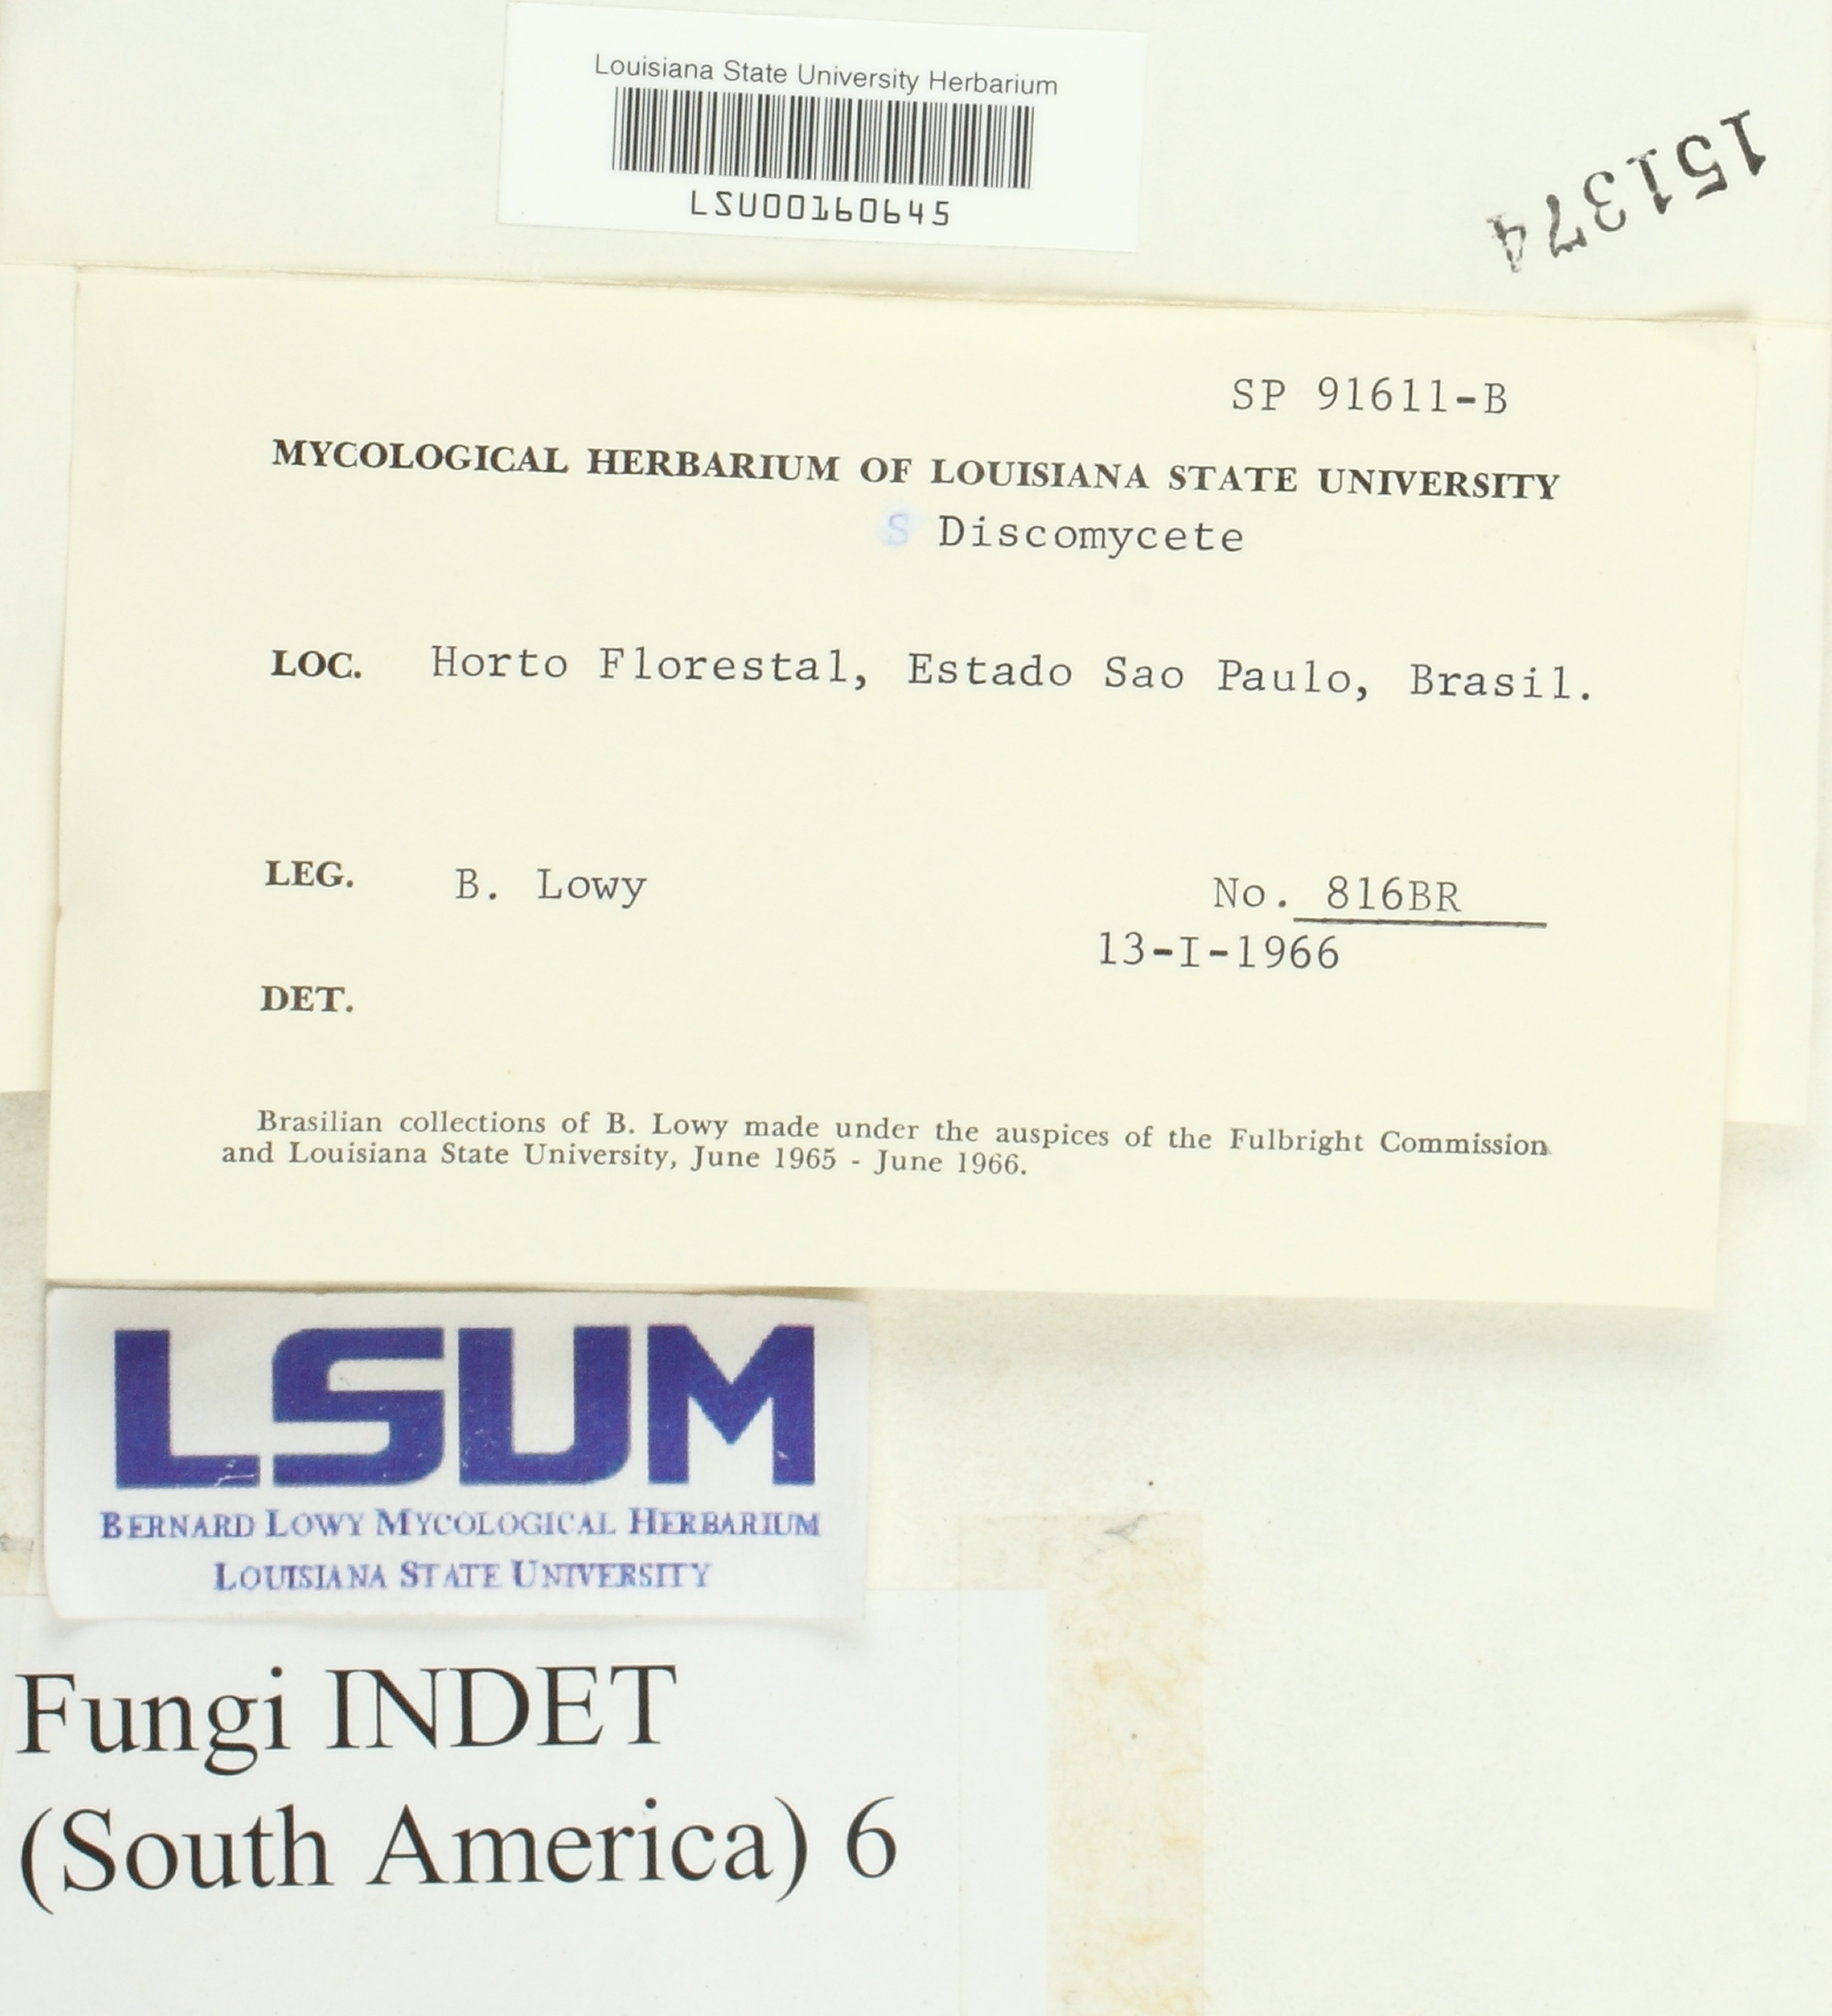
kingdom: Fungi
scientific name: Fungi
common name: Fungi
